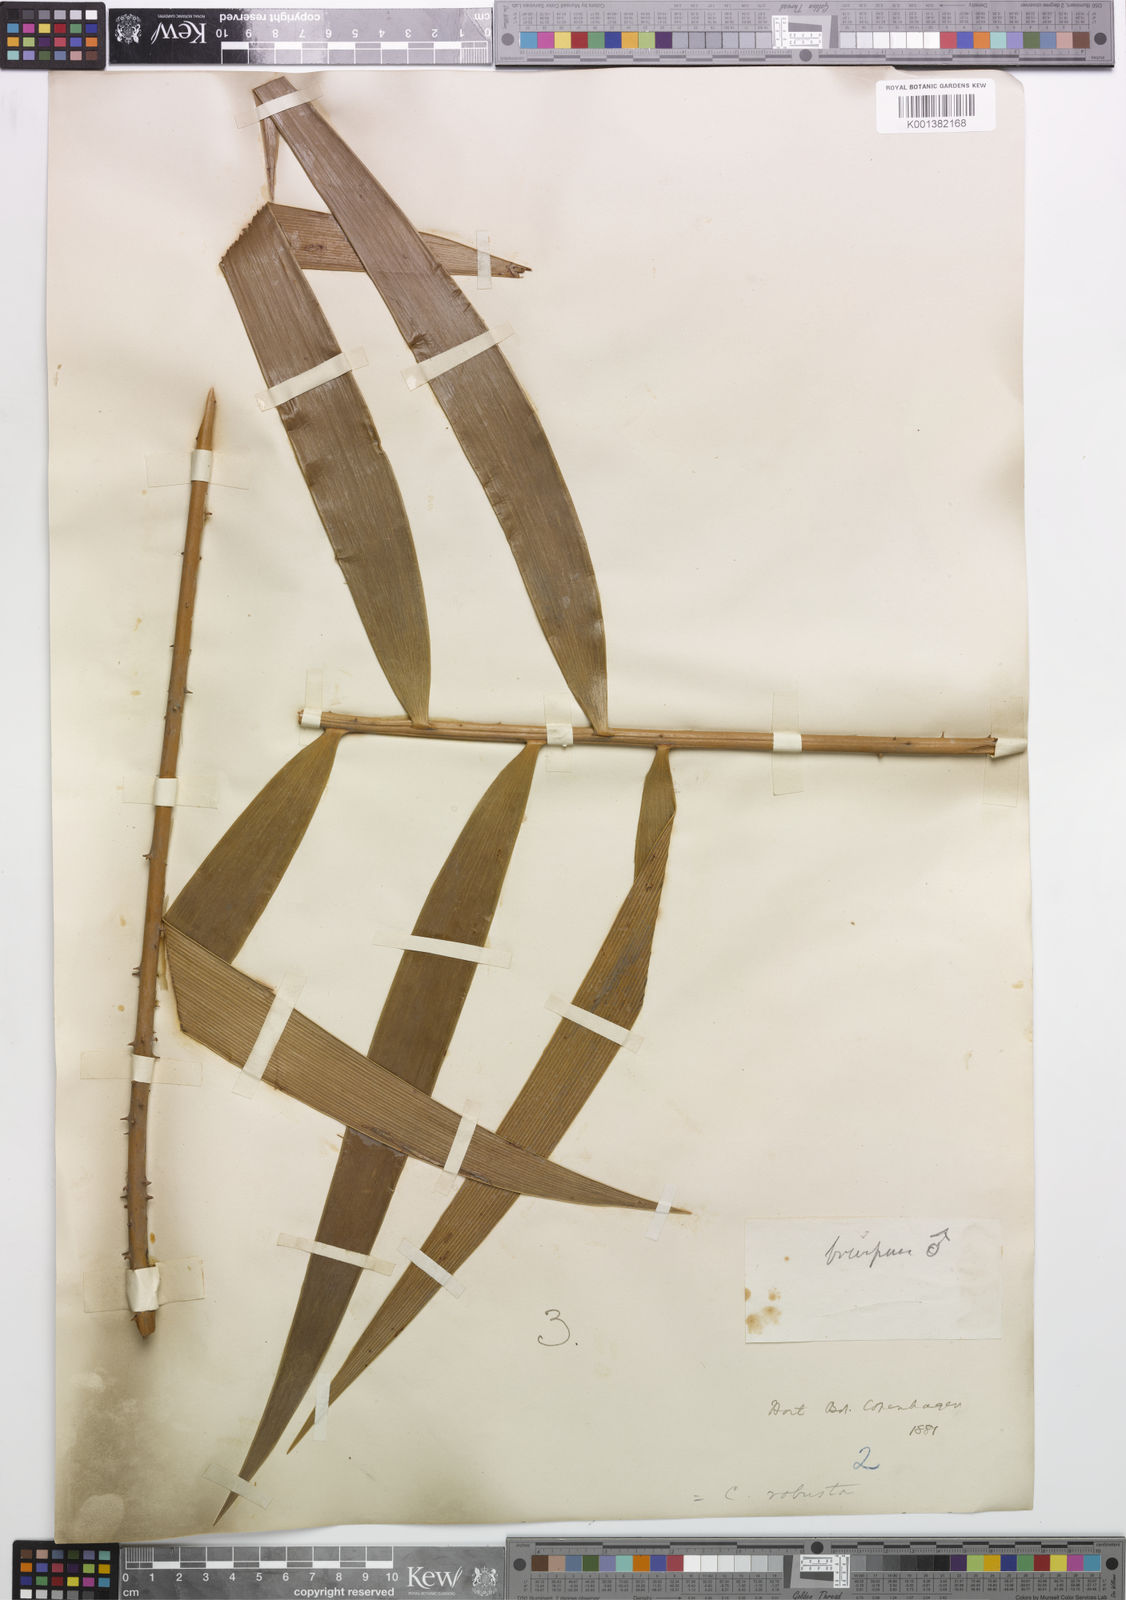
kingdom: Plantae
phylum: Tracheophyta
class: Cycadopsida
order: Cycadales
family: Zamiaceae
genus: Ceratozamia
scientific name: Ceratozamia robusta
